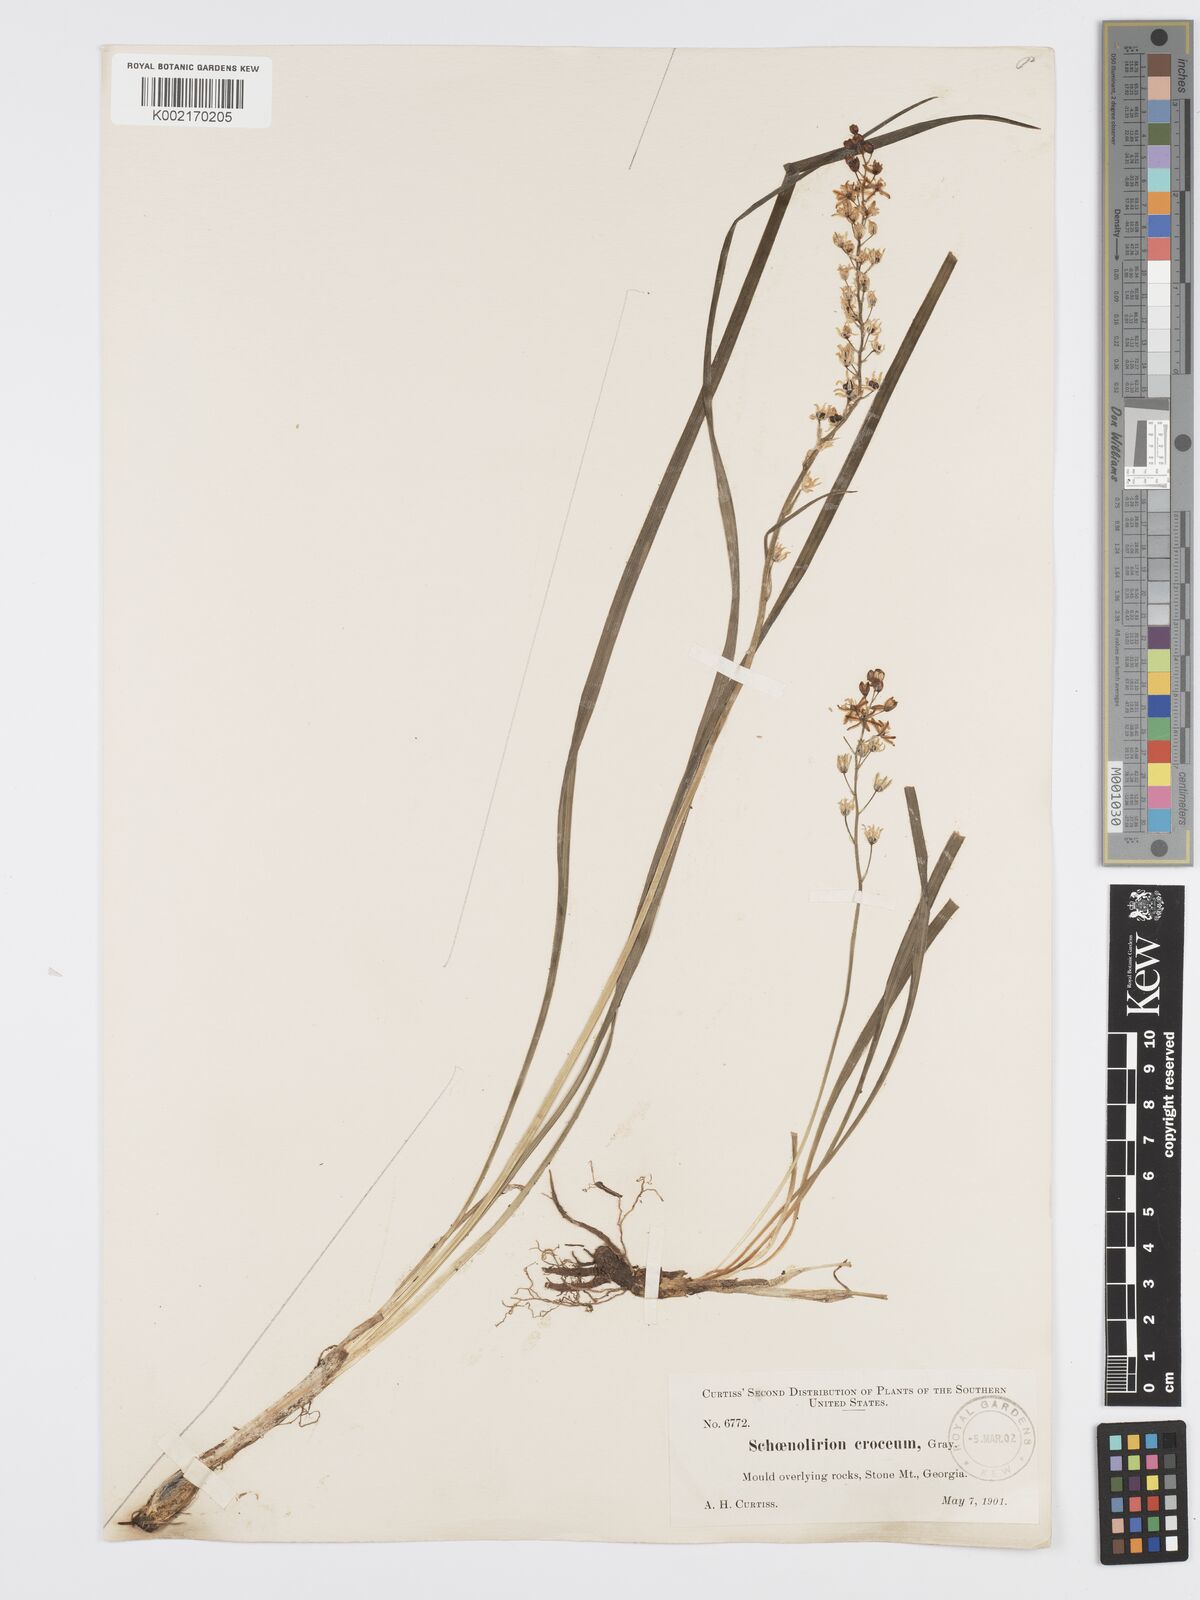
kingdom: Plantae
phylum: Tracheophyta
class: Liliopsida
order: Asparagales
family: Asparagaceae
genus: Schoenolirion
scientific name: Schoenolirion croceum
